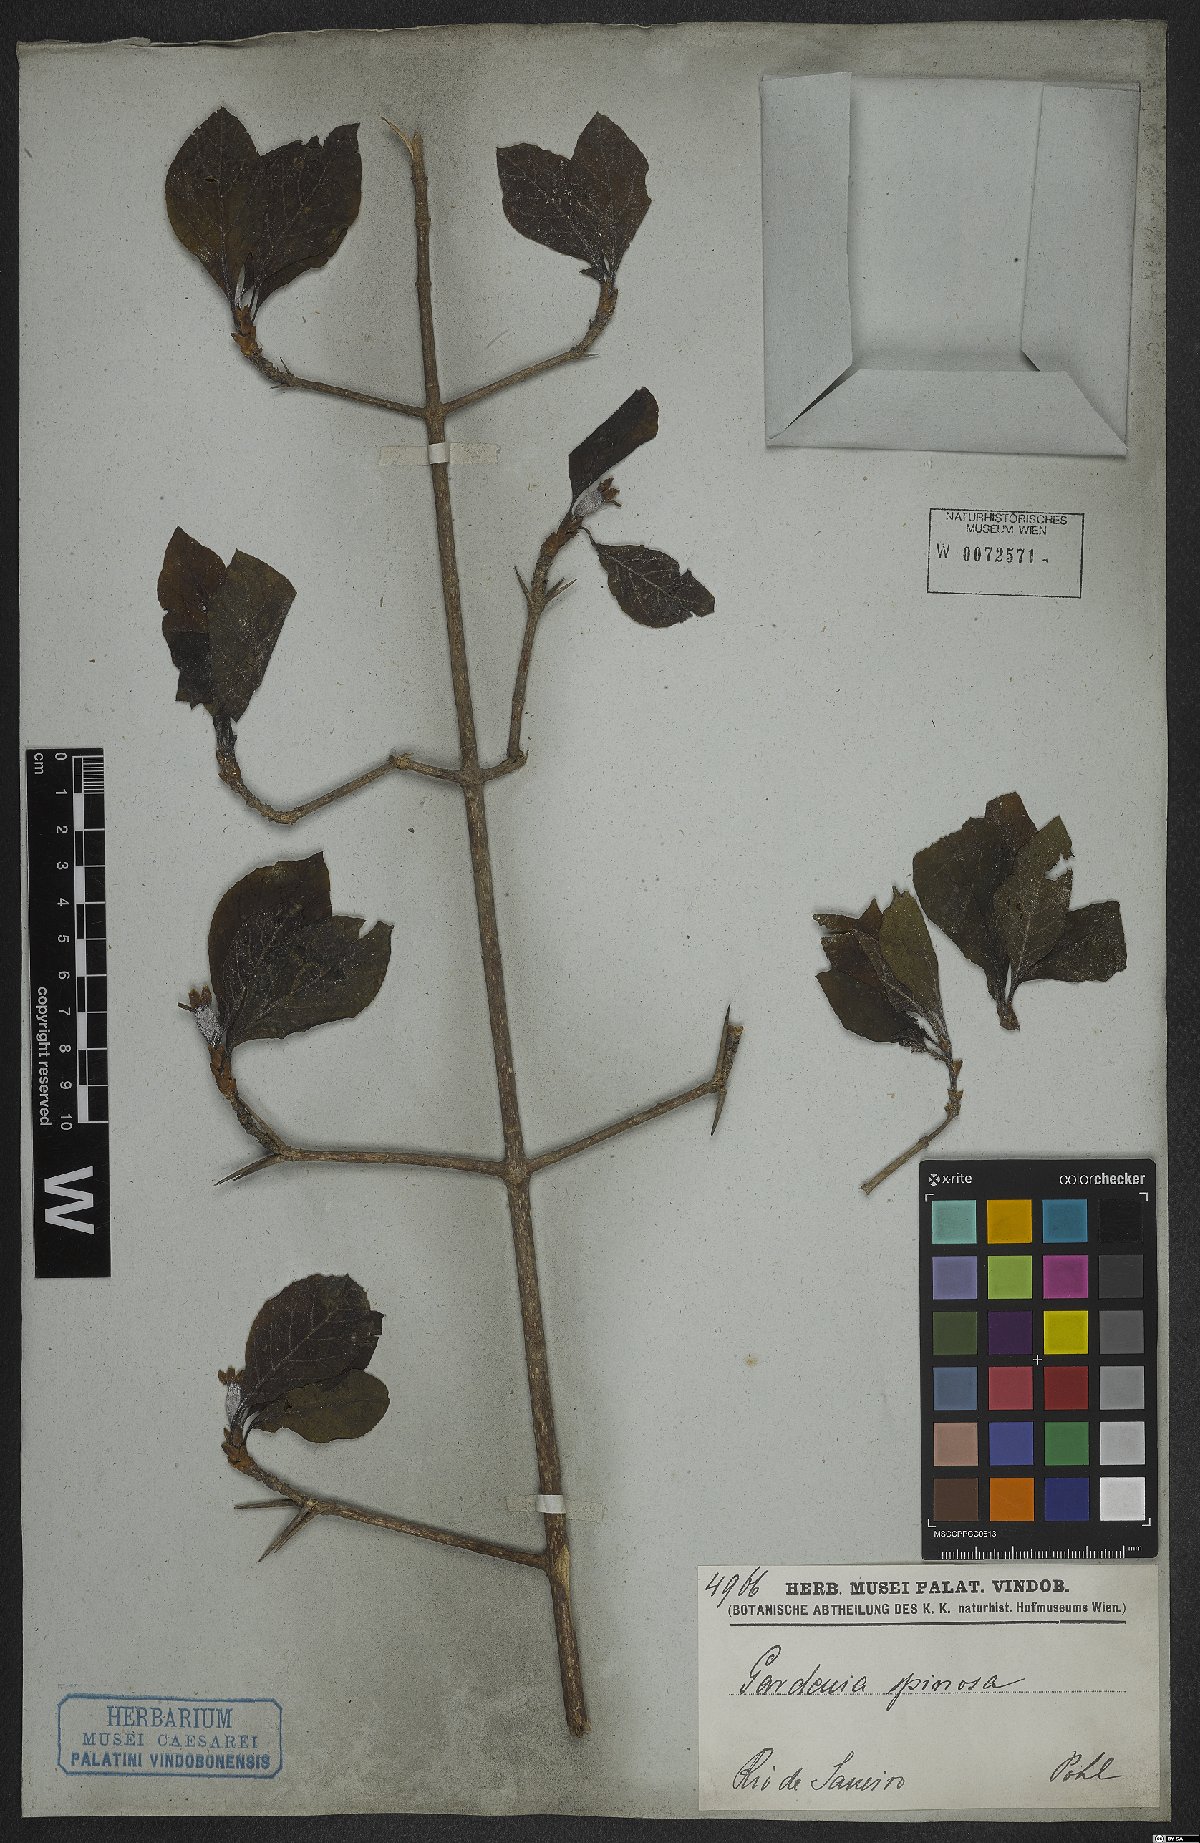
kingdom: Plantae
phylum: Tracheophyta
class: Magnoliopsida
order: Gentianales
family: Rubiaceae
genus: Randia
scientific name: Randia armata
